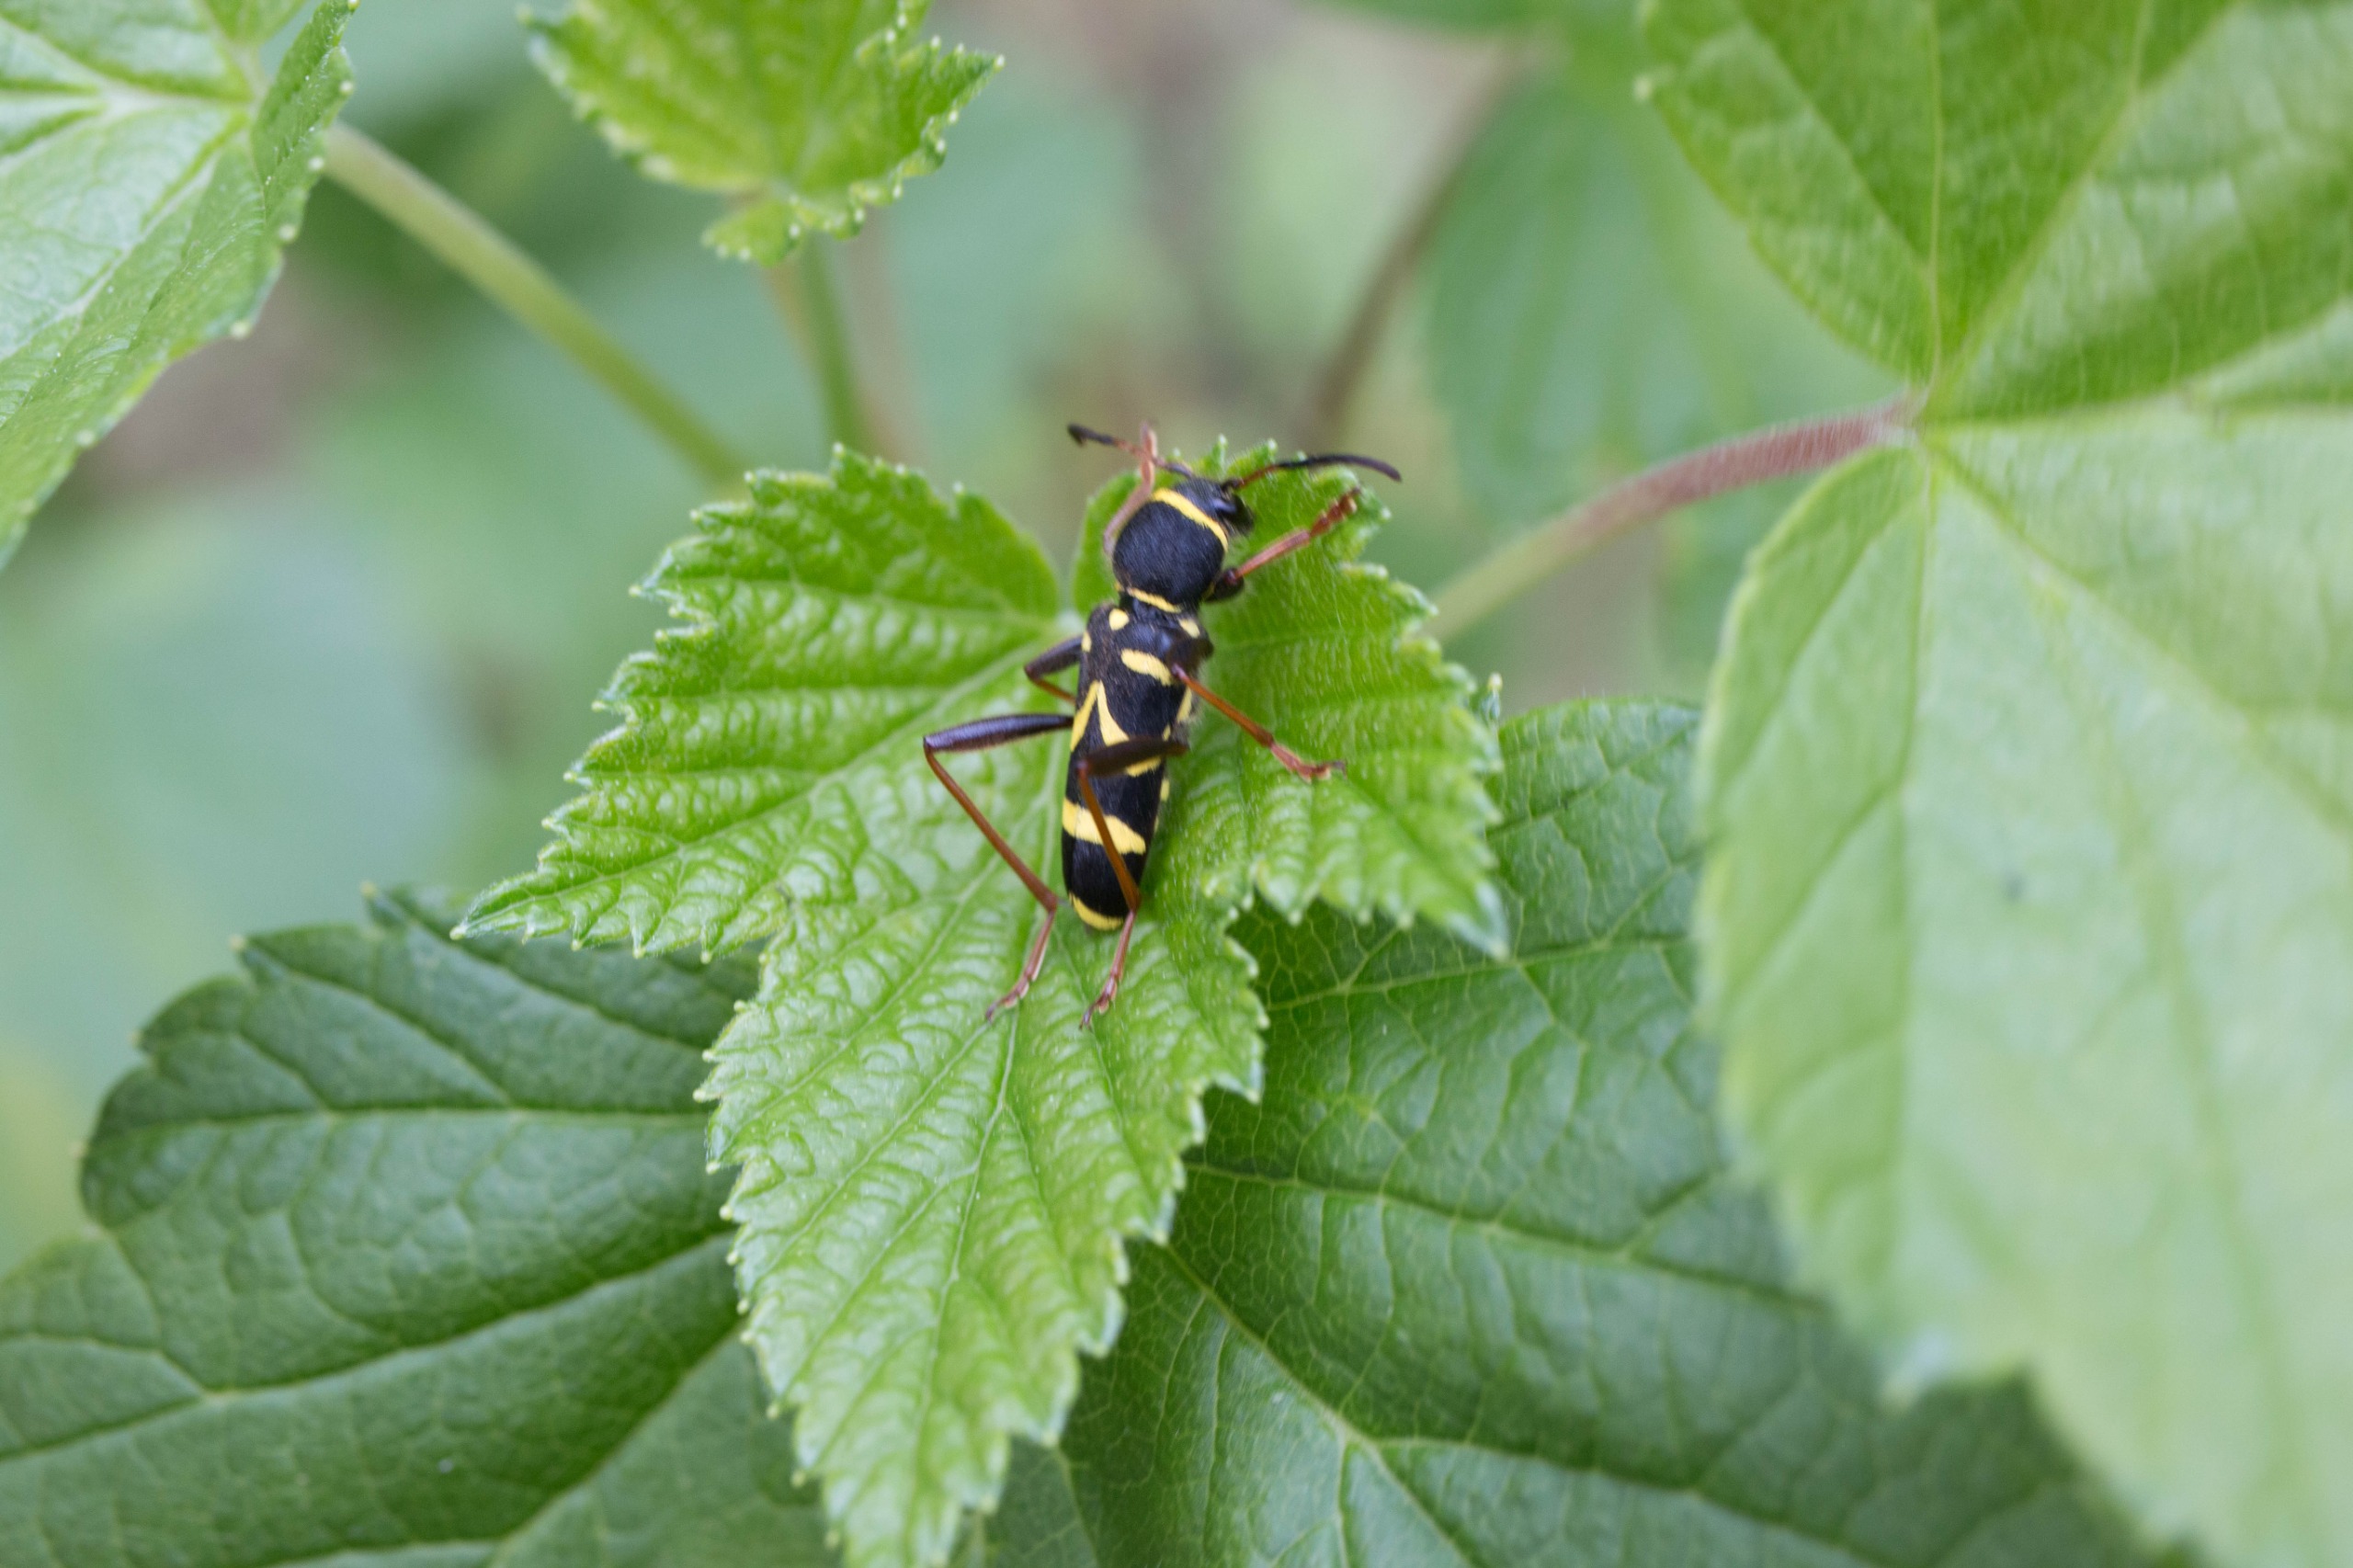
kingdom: Animalia
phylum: Arthropoda
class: Insecta
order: Coleoptera
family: Cerambycidae
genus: Clytus
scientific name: Clytus arietis
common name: Lille hvepsebuk
